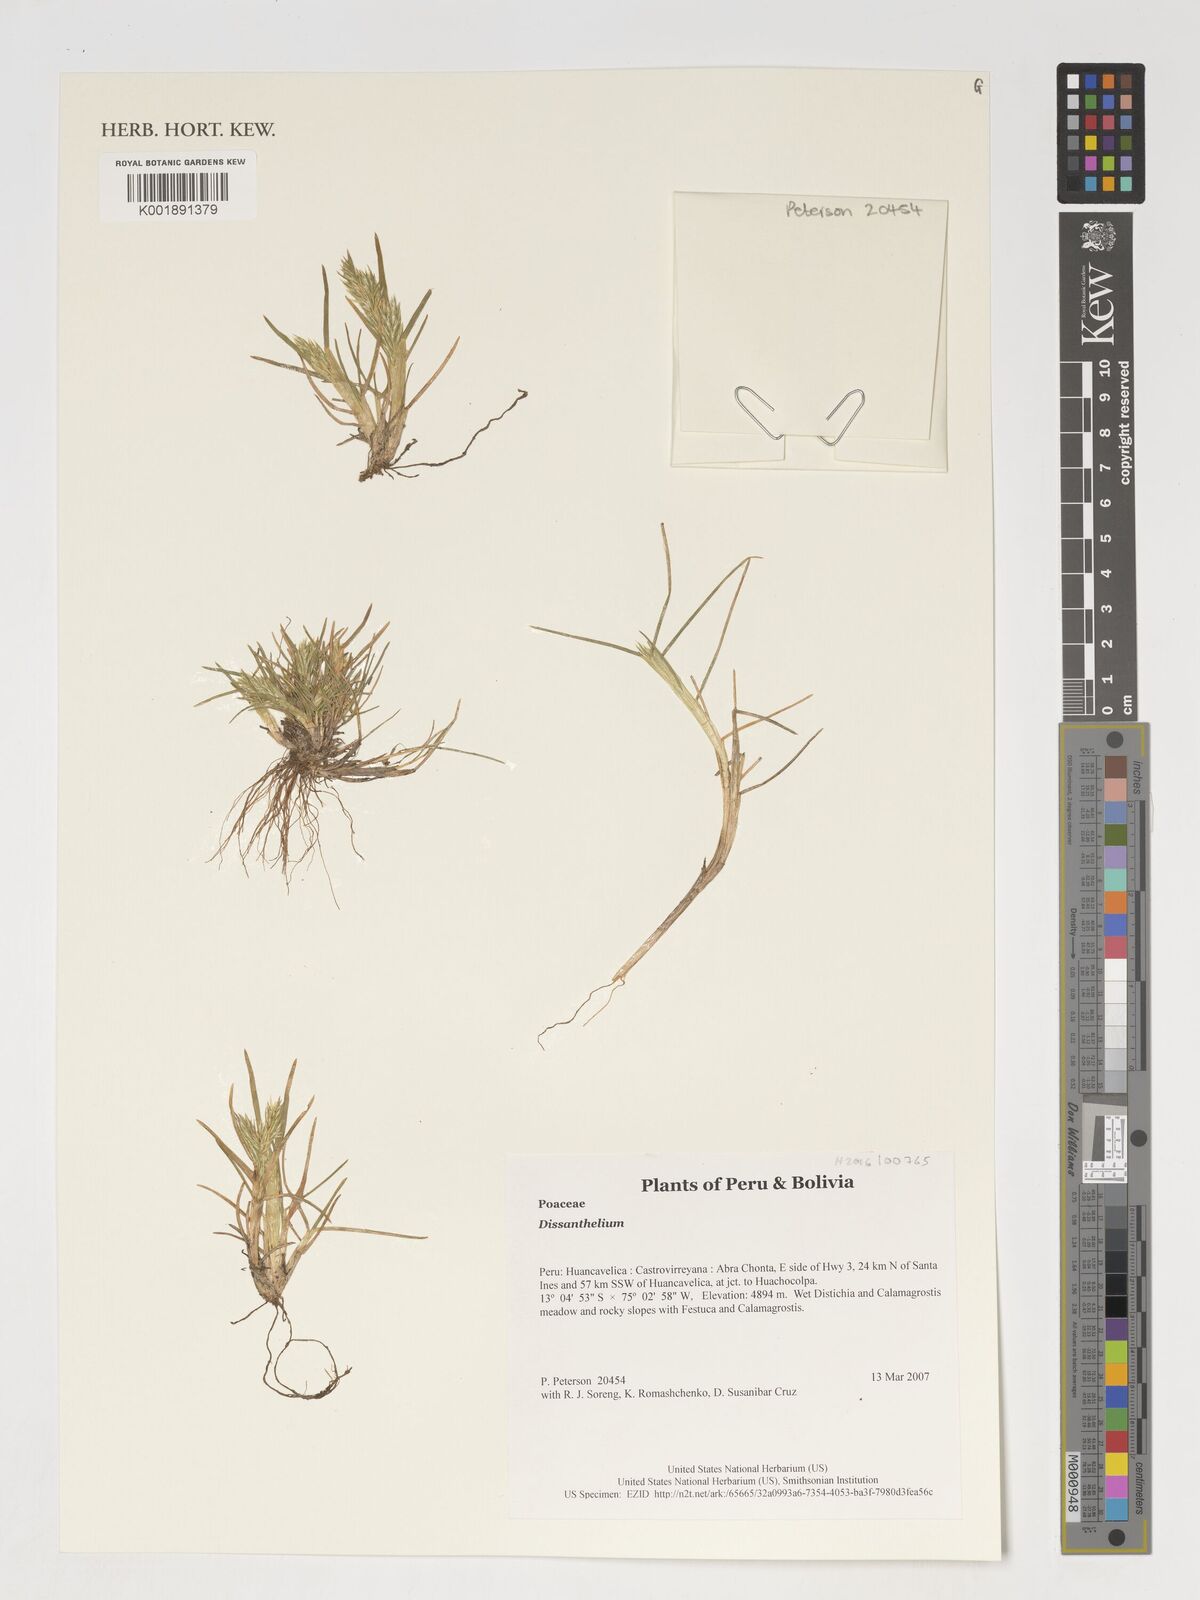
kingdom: Plantae
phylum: Tracheophyta
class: Liliopsida
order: Poales
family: Poaceae
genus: Poa
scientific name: Poa
